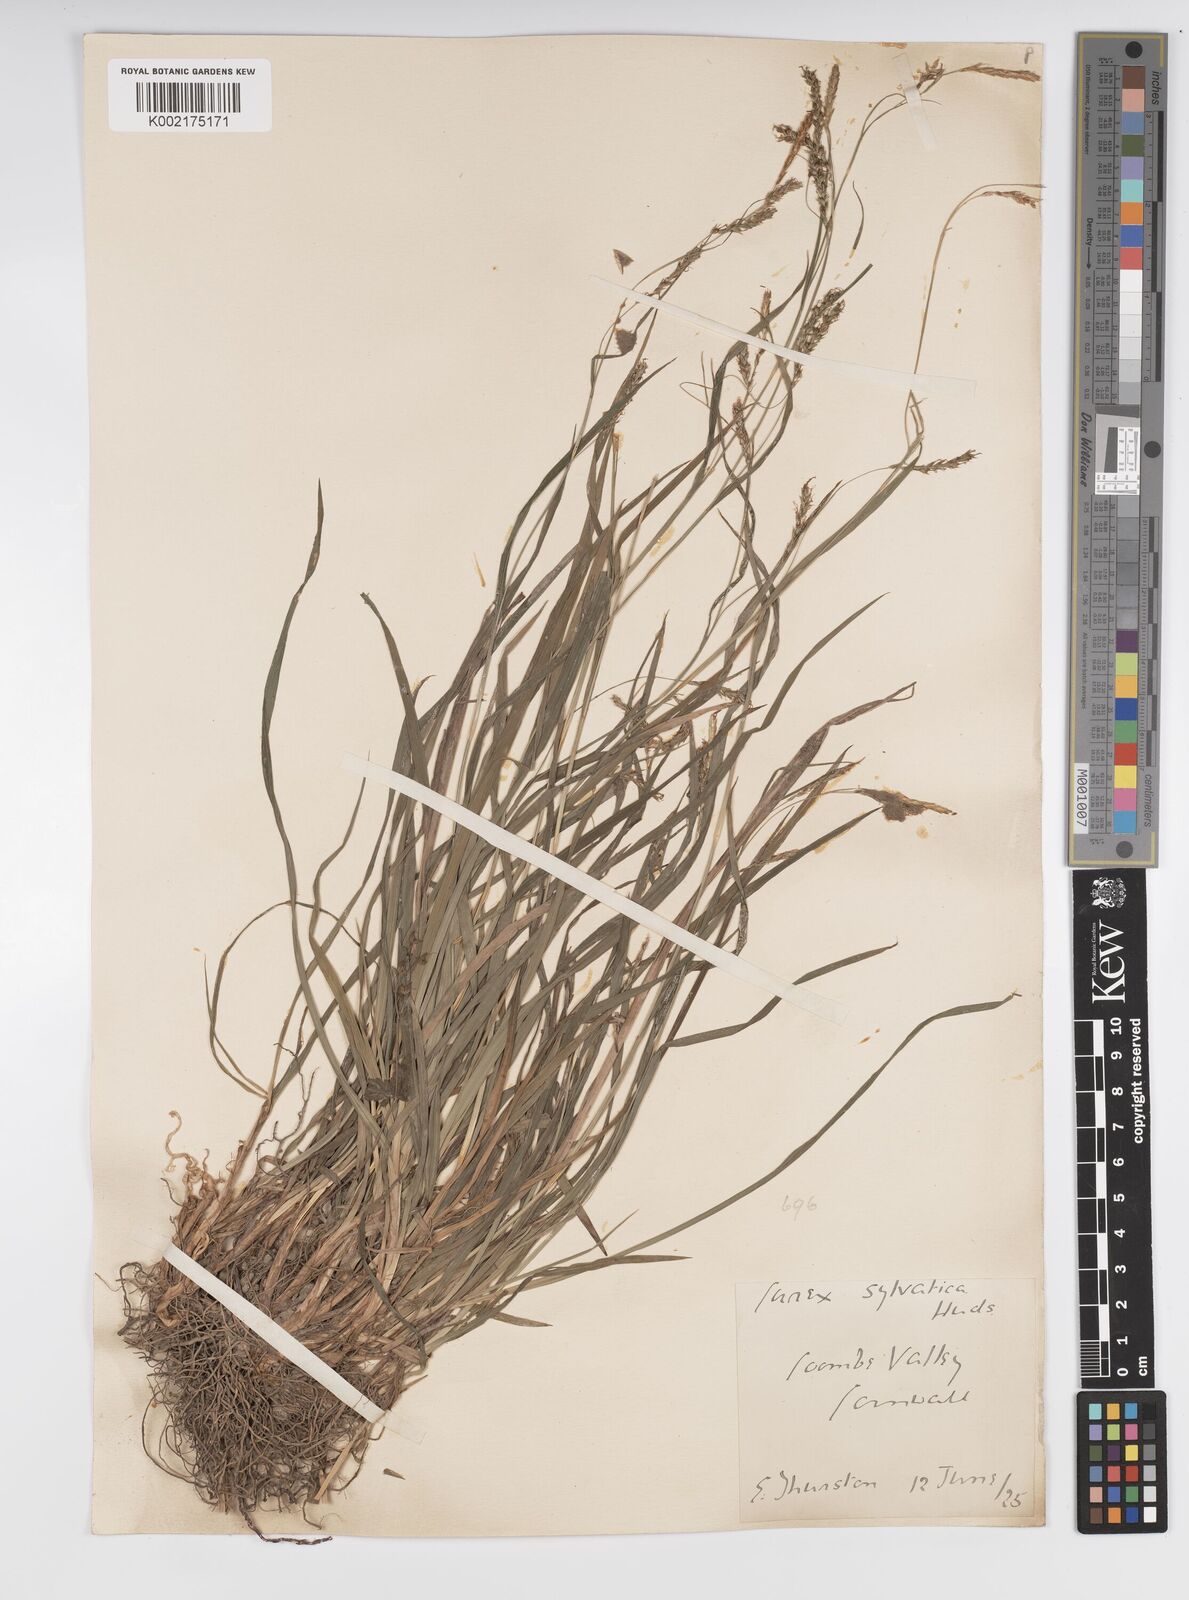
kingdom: Plantae
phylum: Tracheophyta
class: Liliopsida
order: Poales
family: Cyperaceae
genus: Carex
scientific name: Carex sylvatica
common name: Wood-sedge
